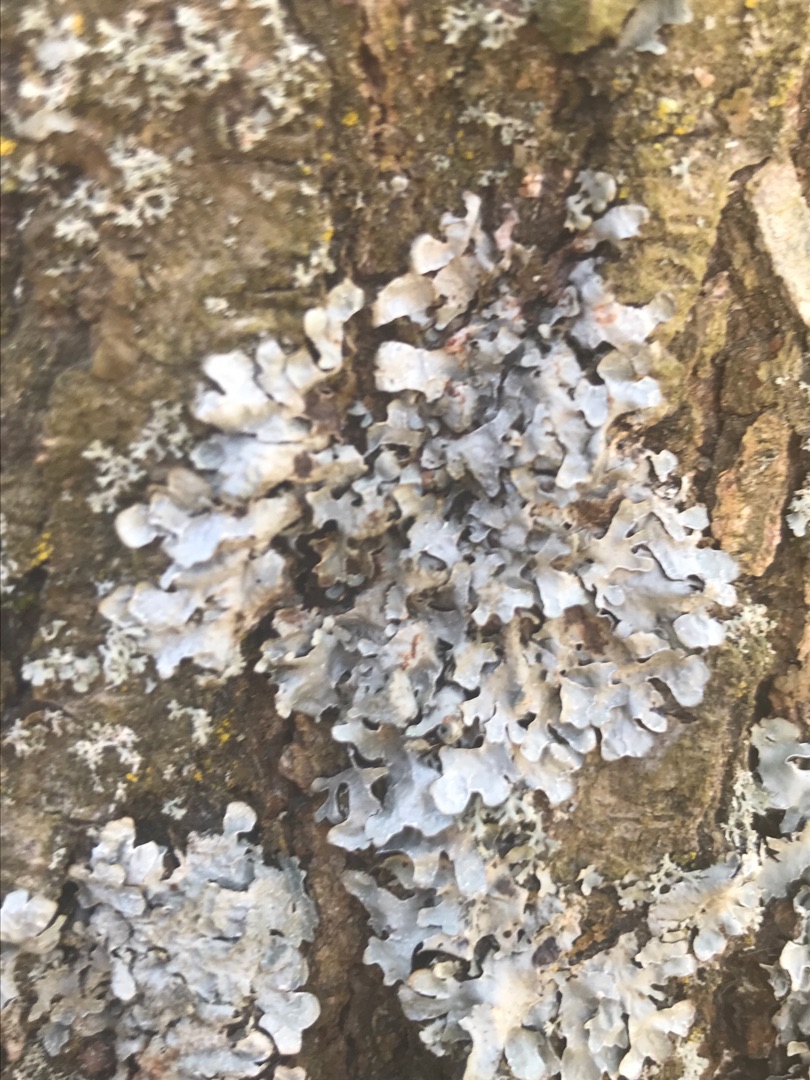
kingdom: Fungi
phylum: Ascomycota
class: Lecanoromycetes
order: Lecanorales
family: Parmeliaceae
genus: Parmelia
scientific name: Parmelia sulcata
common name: Rynket skållav
